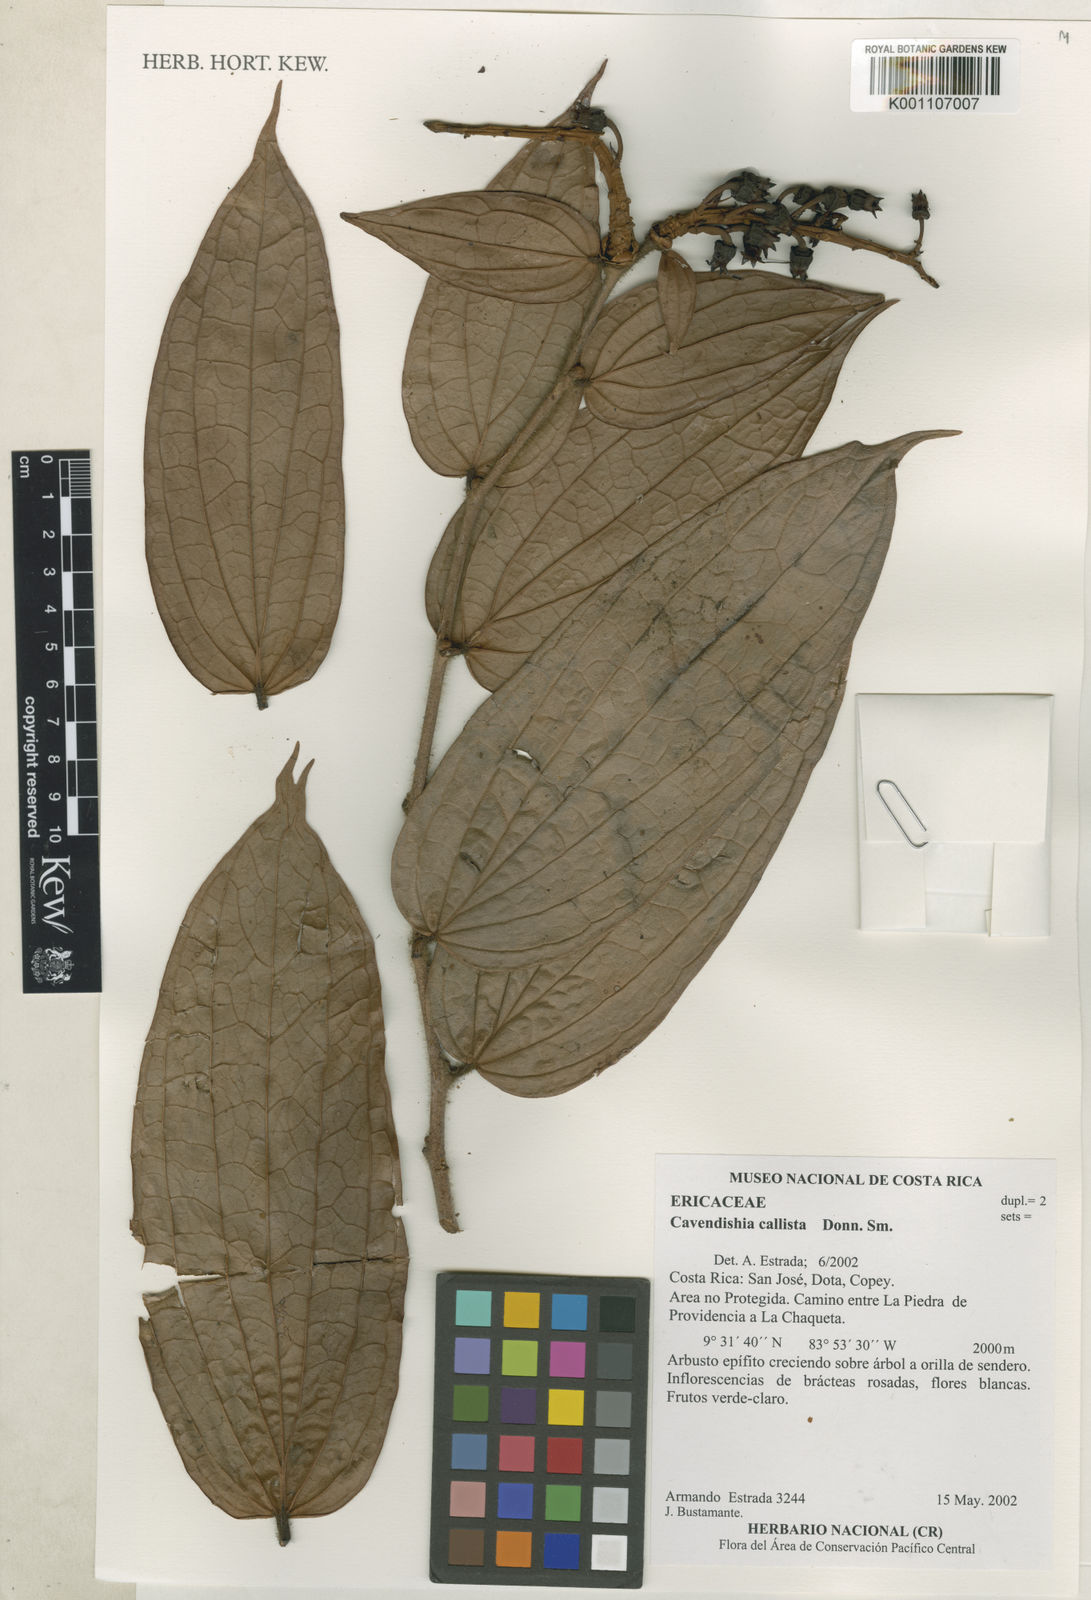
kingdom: Plantae
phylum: Tracheophyta
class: Magnoliopsida
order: Ericales
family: Ericaceae
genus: Cavendishia
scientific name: Cavendishia callista
